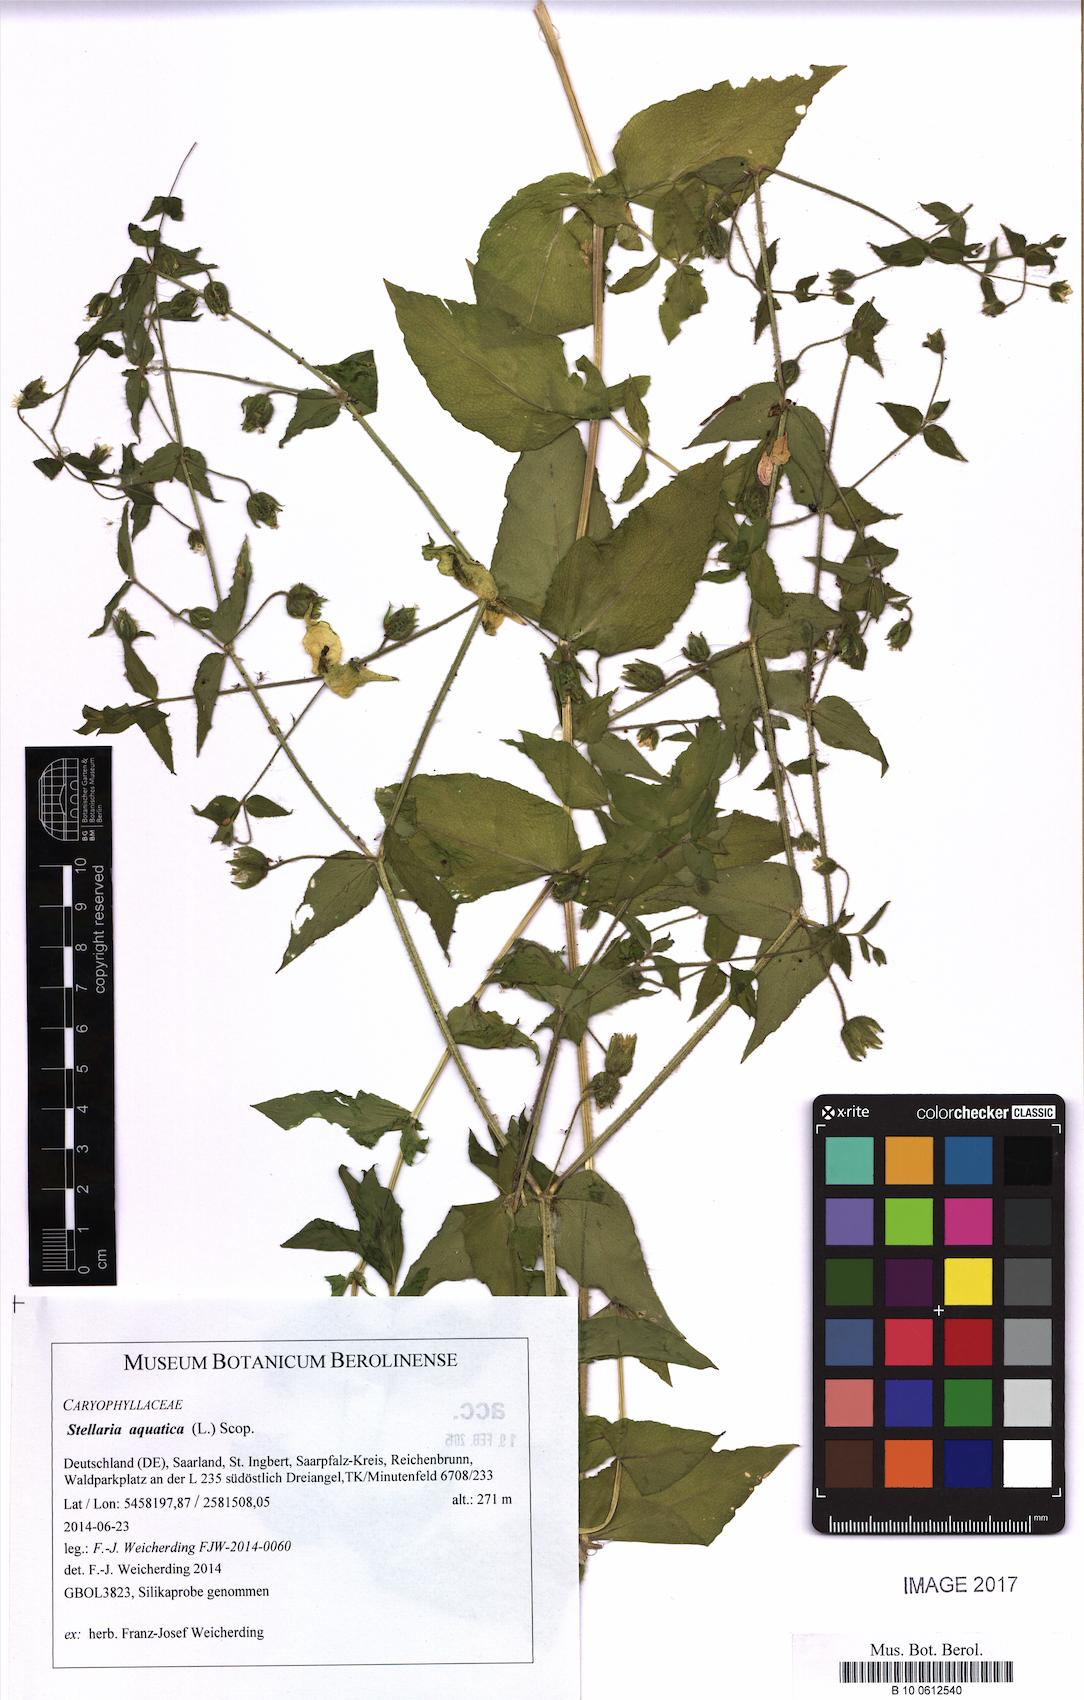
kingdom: Plantae
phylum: Tracheophyta
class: Magnoliopsida
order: Caryophyllales
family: Caryophyllaceae
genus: Stellaria
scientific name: Stellaria aquatica
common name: Water chickweed
